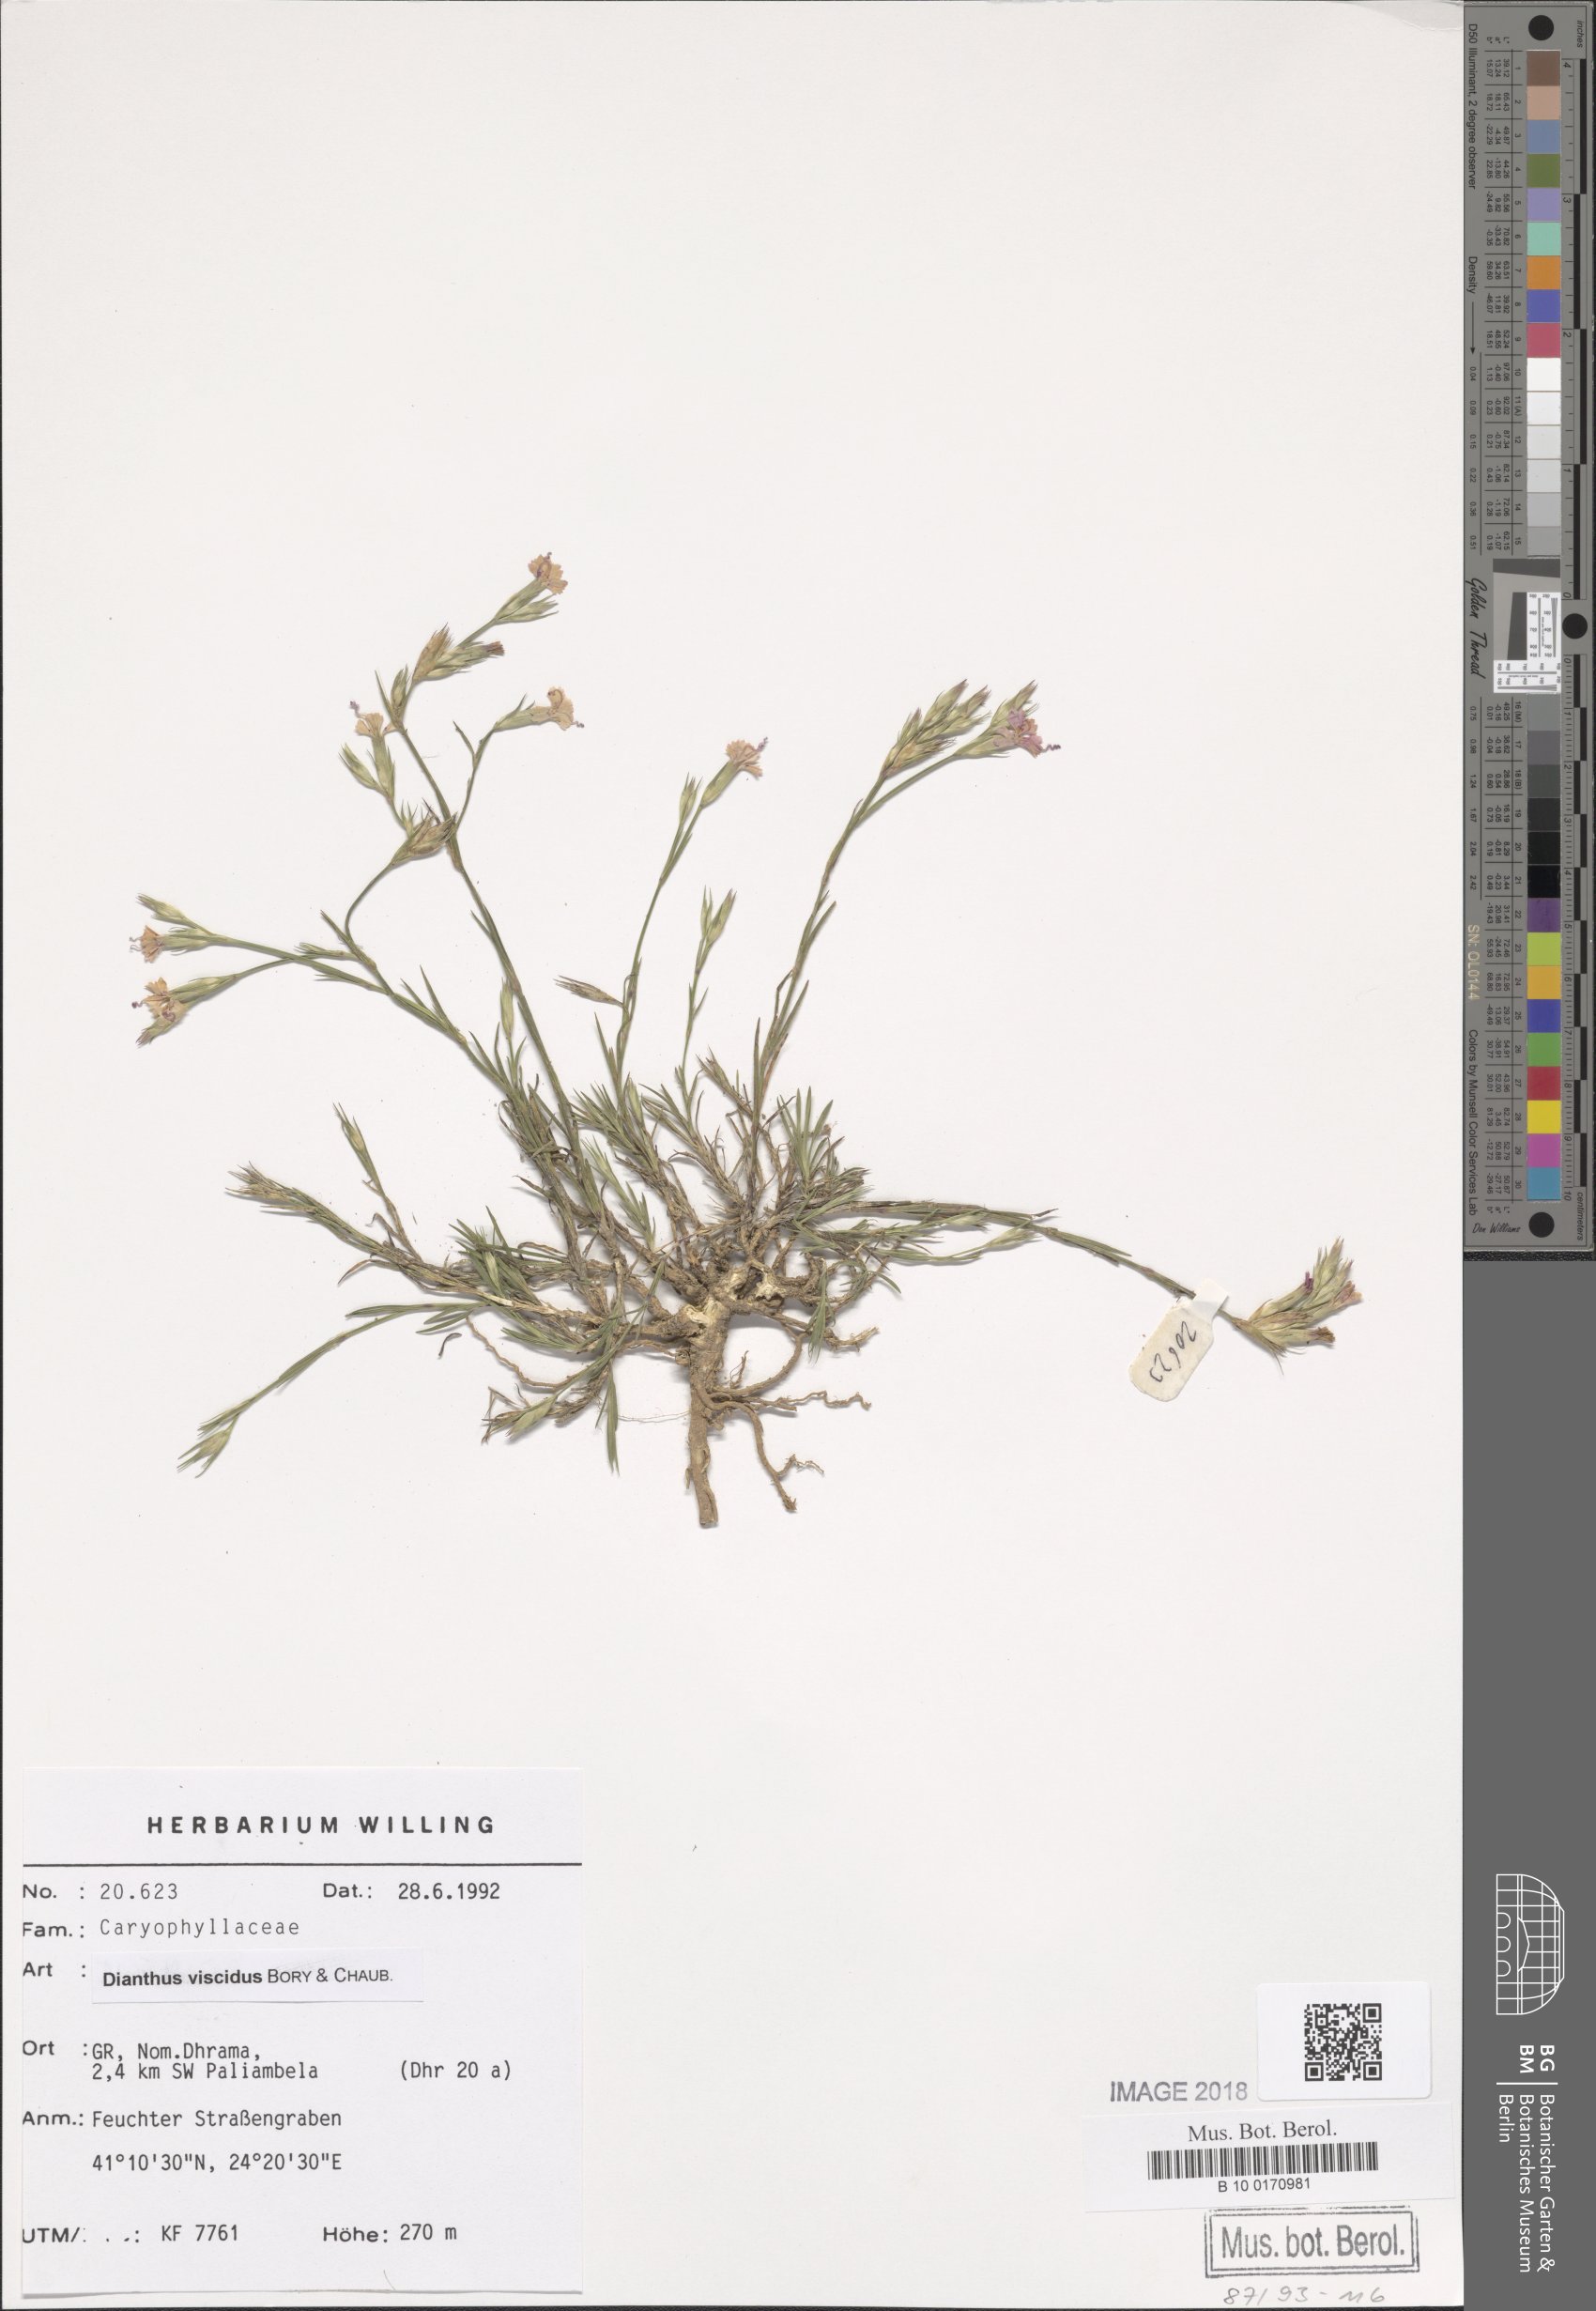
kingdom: Plantae
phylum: Tracheophyta
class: Magnoliopsida
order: Caryophyllales
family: Caryophyllaceae
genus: Dianthus
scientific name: Dianthus viscidus
